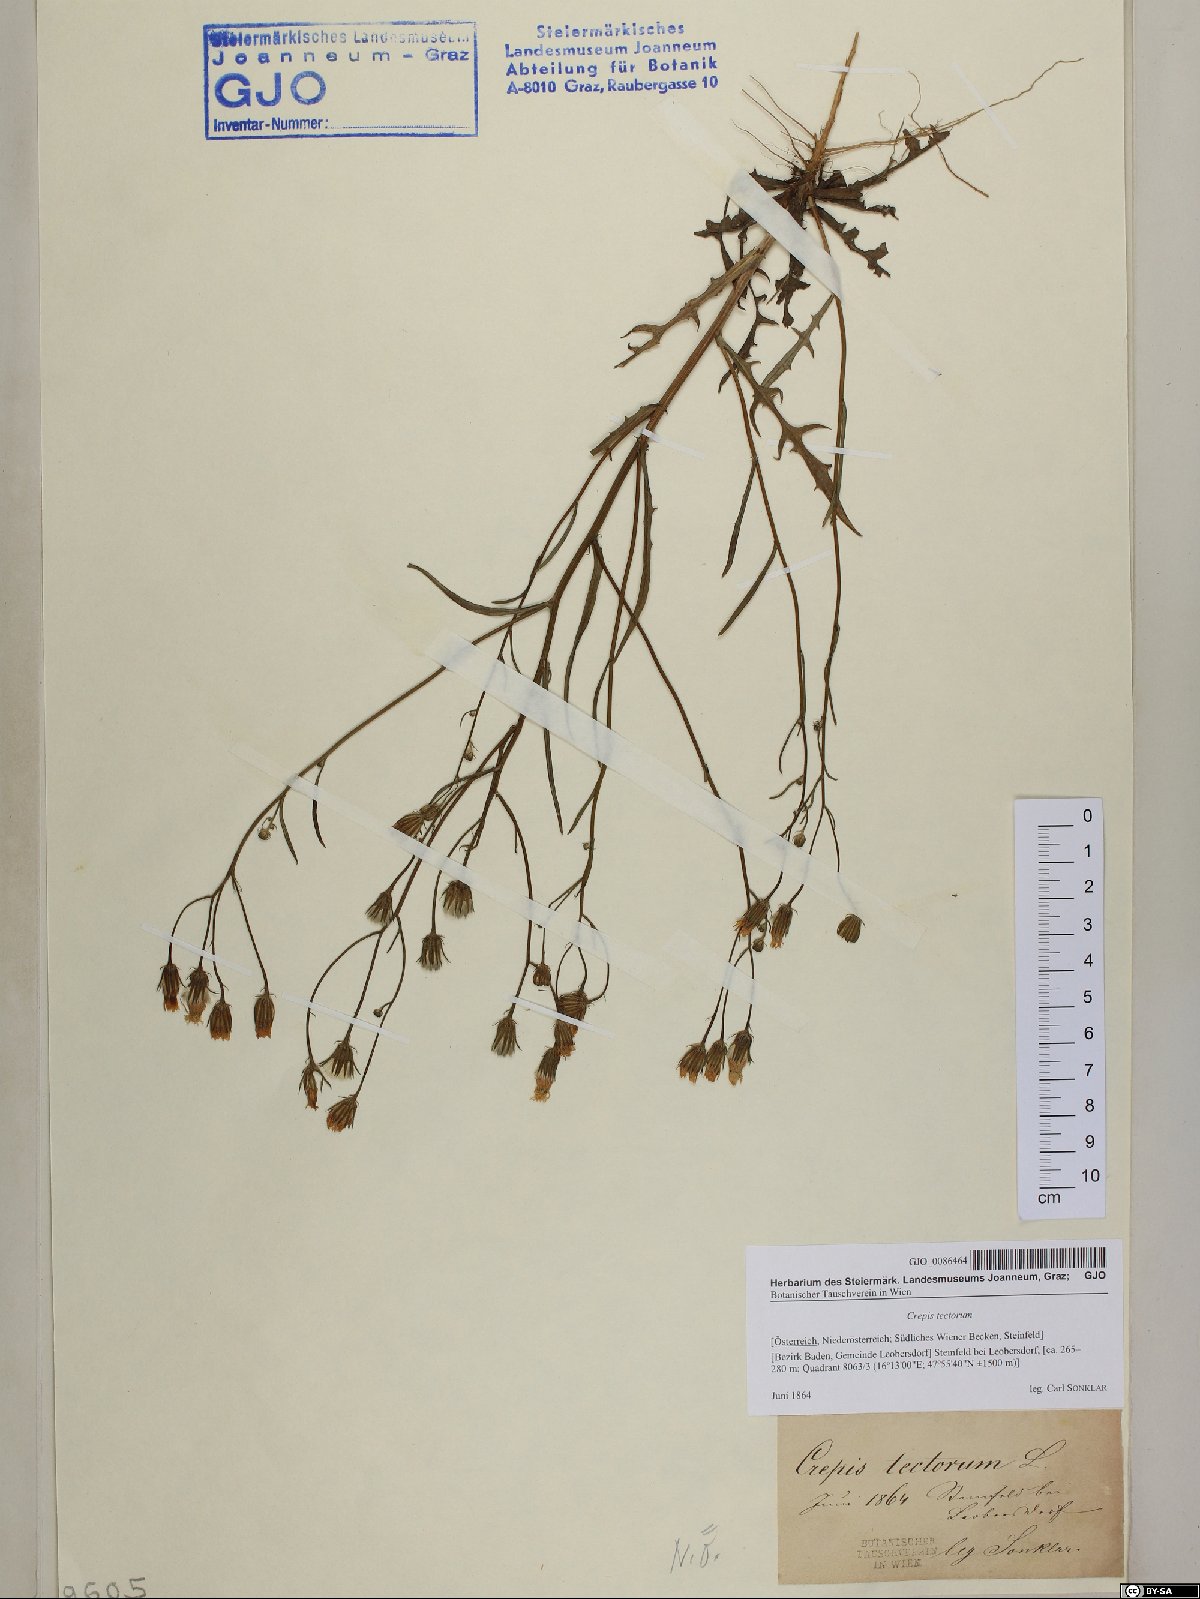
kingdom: Plantae
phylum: Tracheophyta
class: Magnoliopsida
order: Asterales
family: Asteraceae
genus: Crepis
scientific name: Crepis tectorum
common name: Narrow-leaved hawk's-beard
